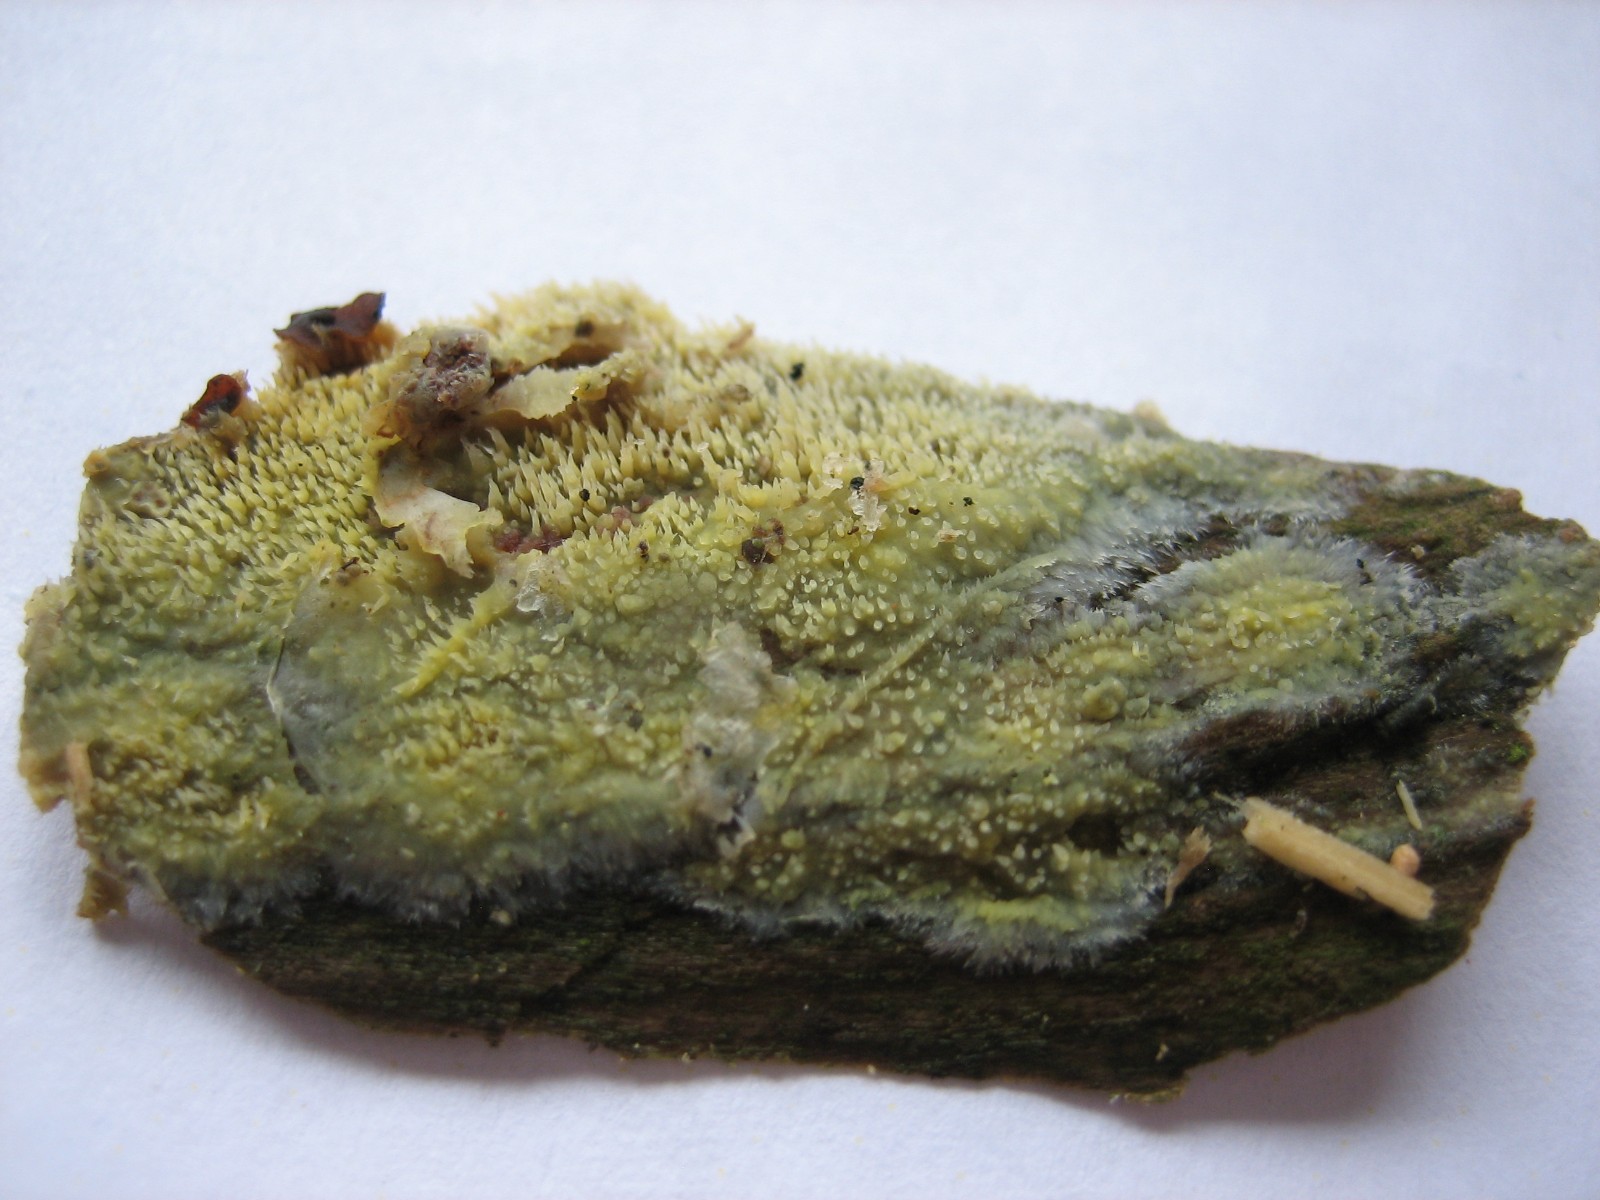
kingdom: Fungi
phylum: Basidiomycota
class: Agaricomycetes
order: Polyporales
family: Meruliaceae
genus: Mycoacia
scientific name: Mycoacia uda
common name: citrongul vokspig
